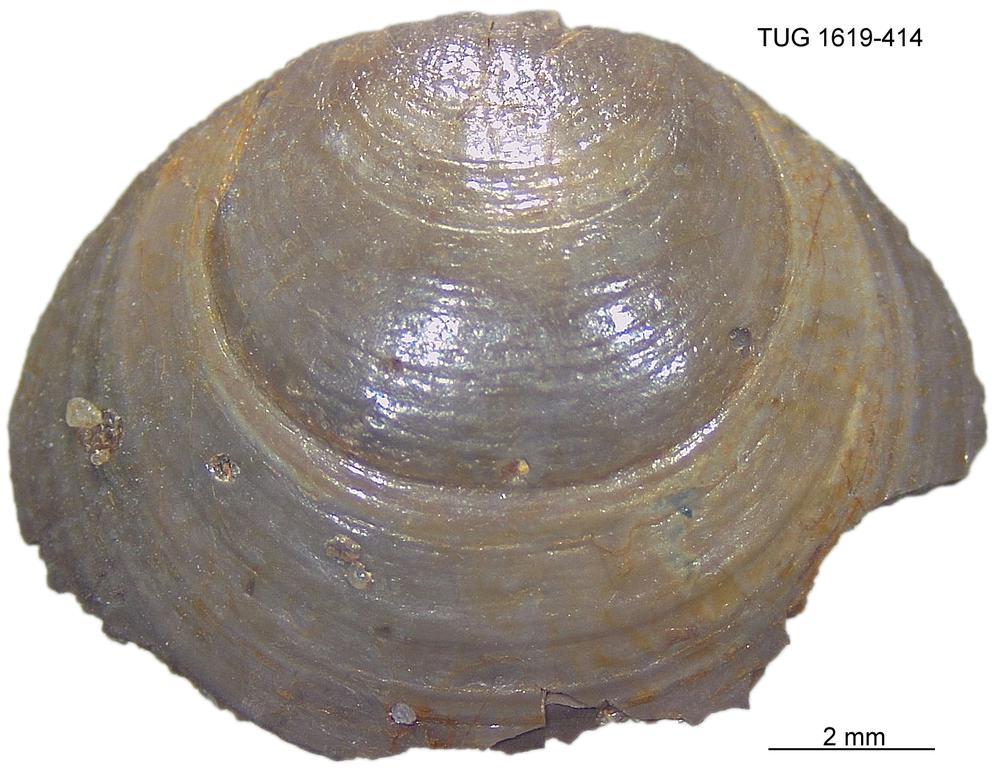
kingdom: Animalia
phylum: Porifera
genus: Ungula
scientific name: Ungula
